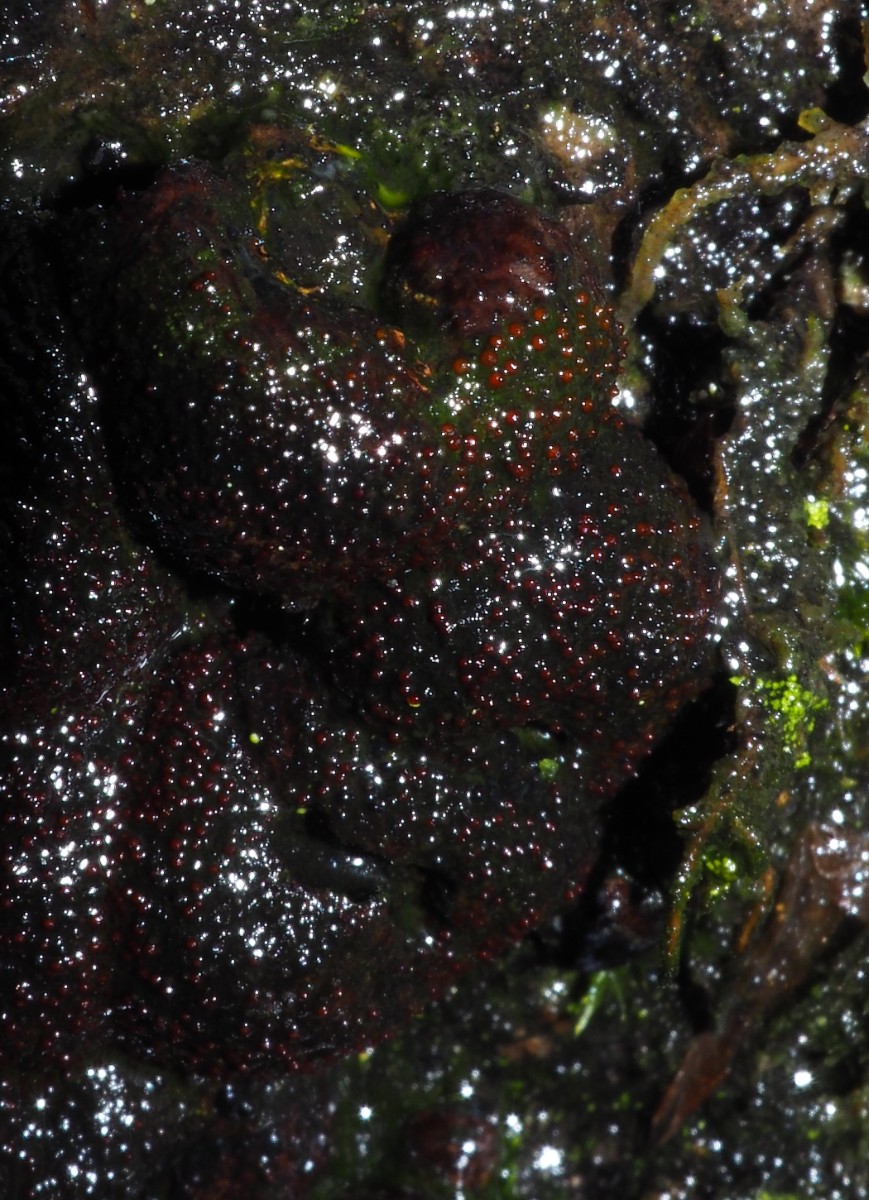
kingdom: Fungi
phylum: Ascomycota
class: Sordariomycetes
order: Hypocreales
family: Nectriaceae
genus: Cosmospora
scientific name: Cosmospora arxii
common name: kuljordbær-cinnobersvamp
